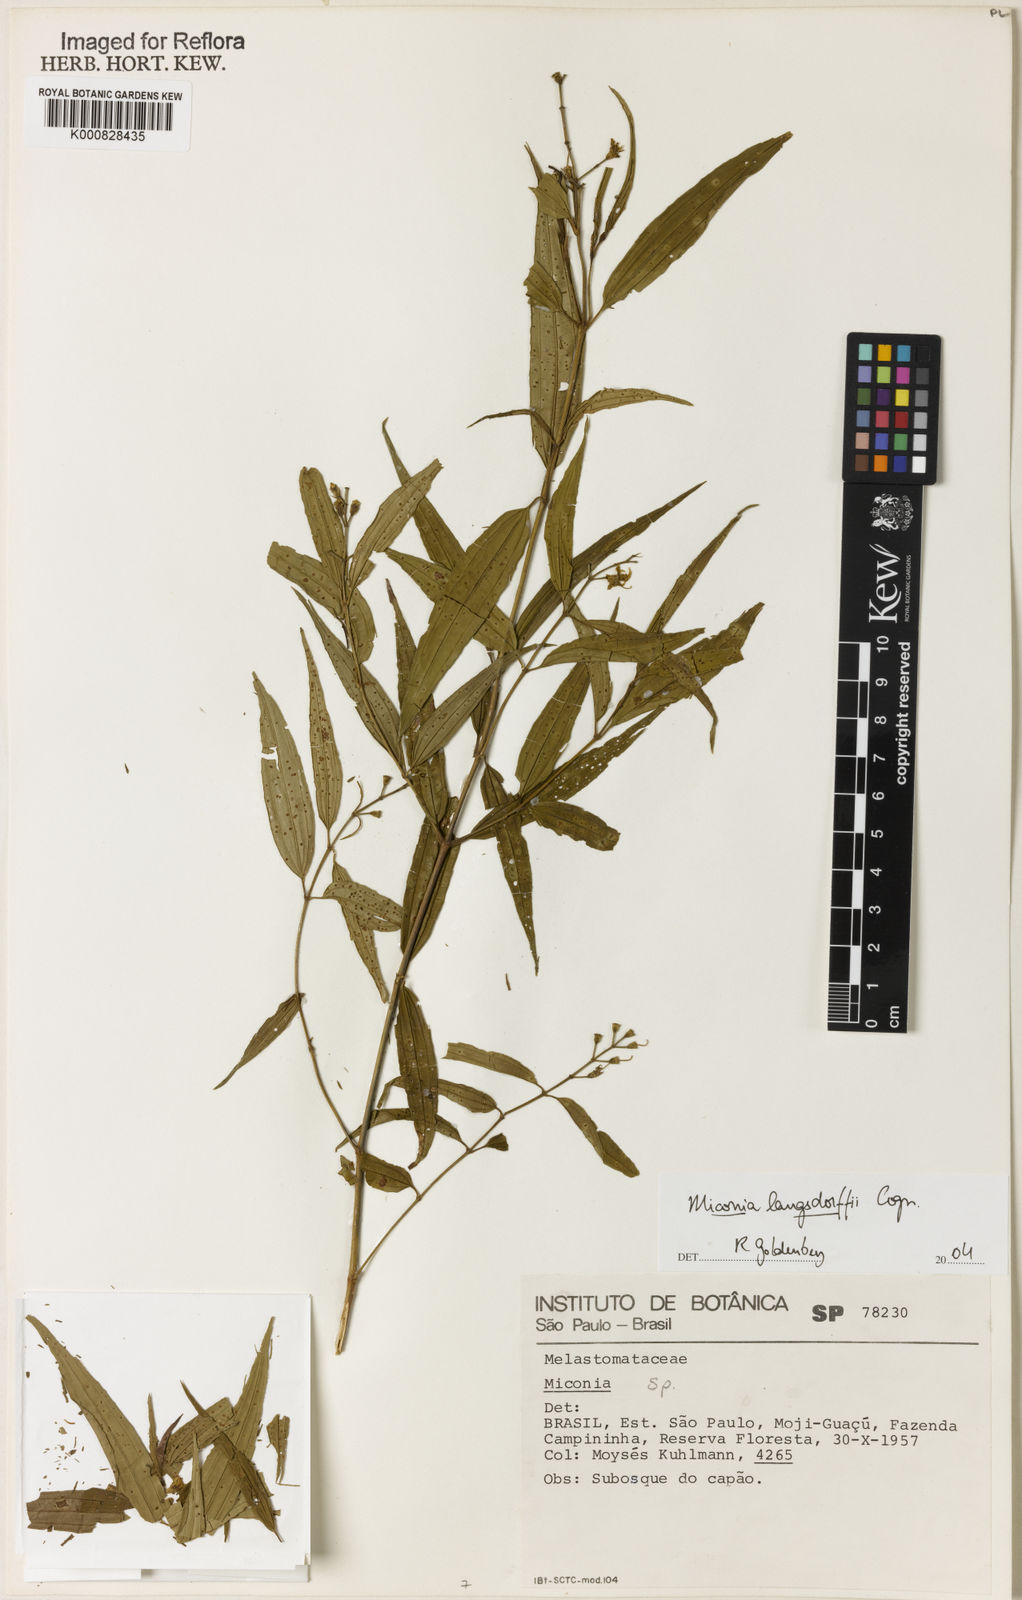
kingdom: Plantae
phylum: Tracheophyta
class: Magnoliopsida
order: Myrtales
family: Melastomataceae
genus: Miconia
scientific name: Miconia langsdorffii
